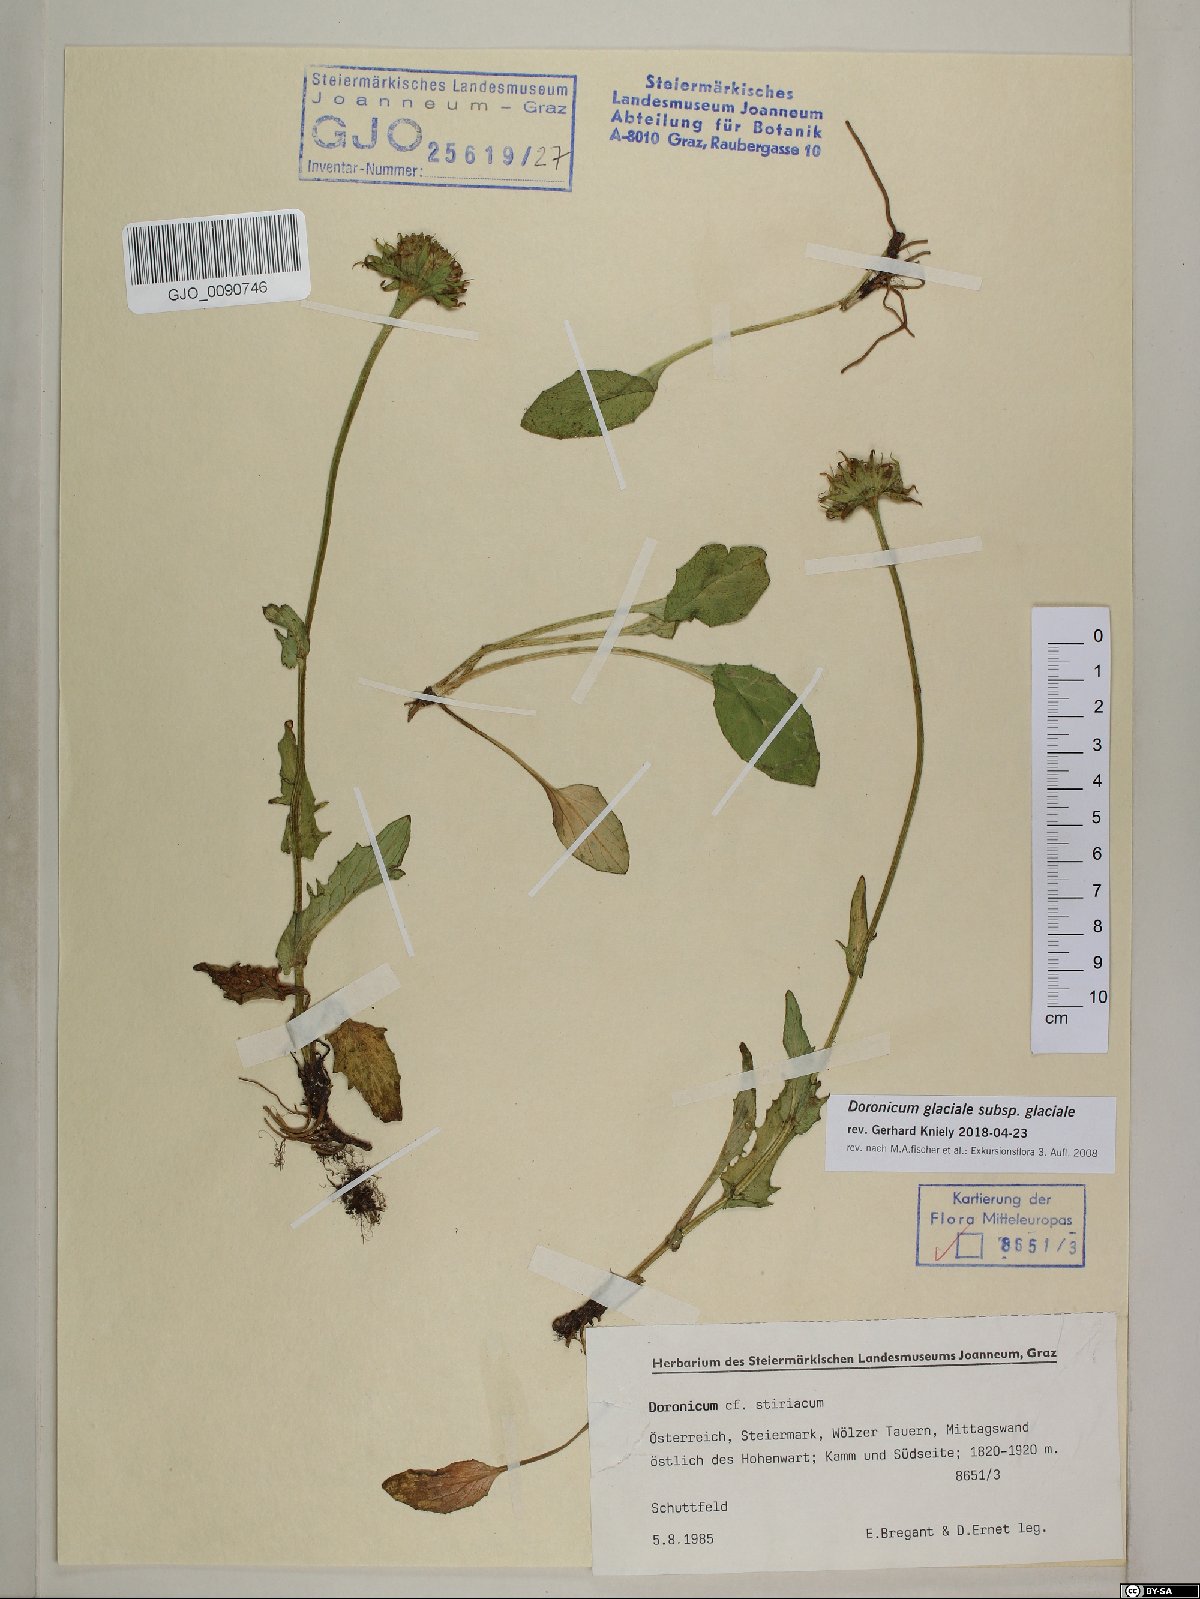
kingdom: Plantae
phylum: Tracheophyta
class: Magnoliopsida
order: Asterales
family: Asteraceae
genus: Doronicum
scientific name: Doronicum glaciale
